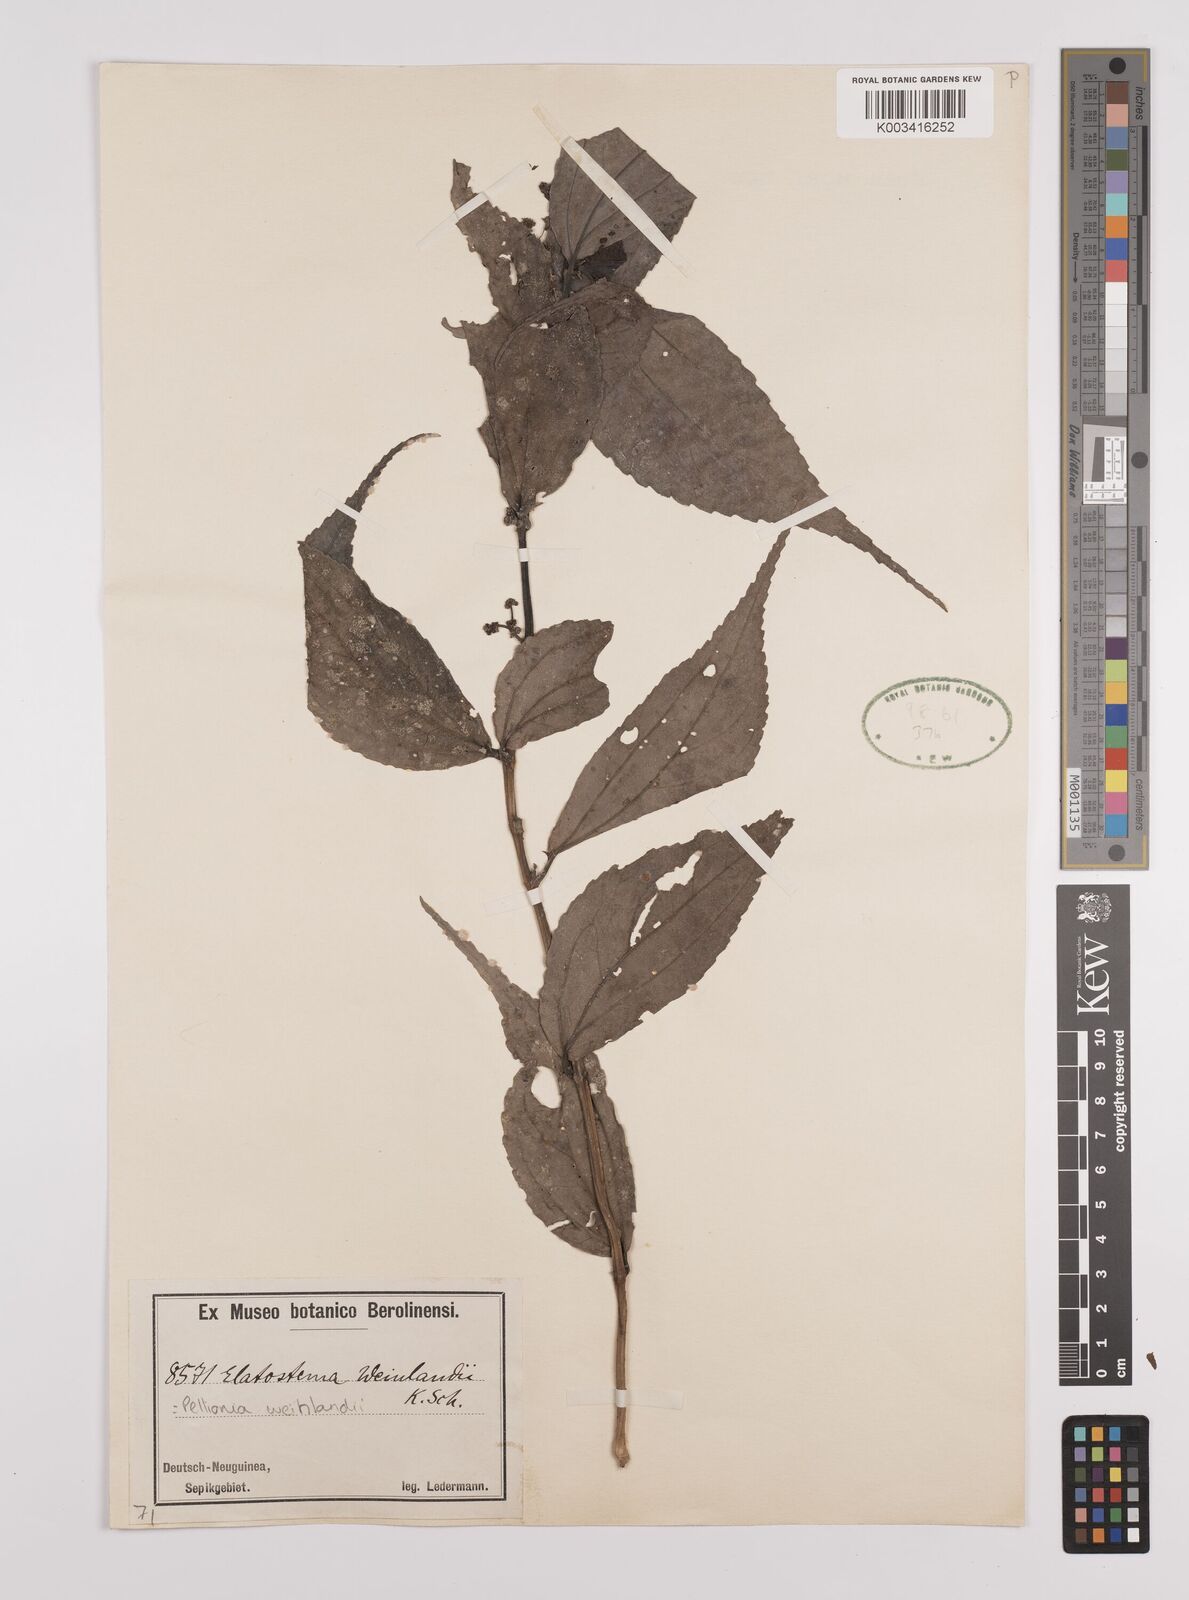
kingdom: Plantae
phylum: Tracheophyta
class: Magnoliopsida
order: Rosales
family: Urticaceae
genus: Elatostema
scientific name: Elatostema weinlandii
